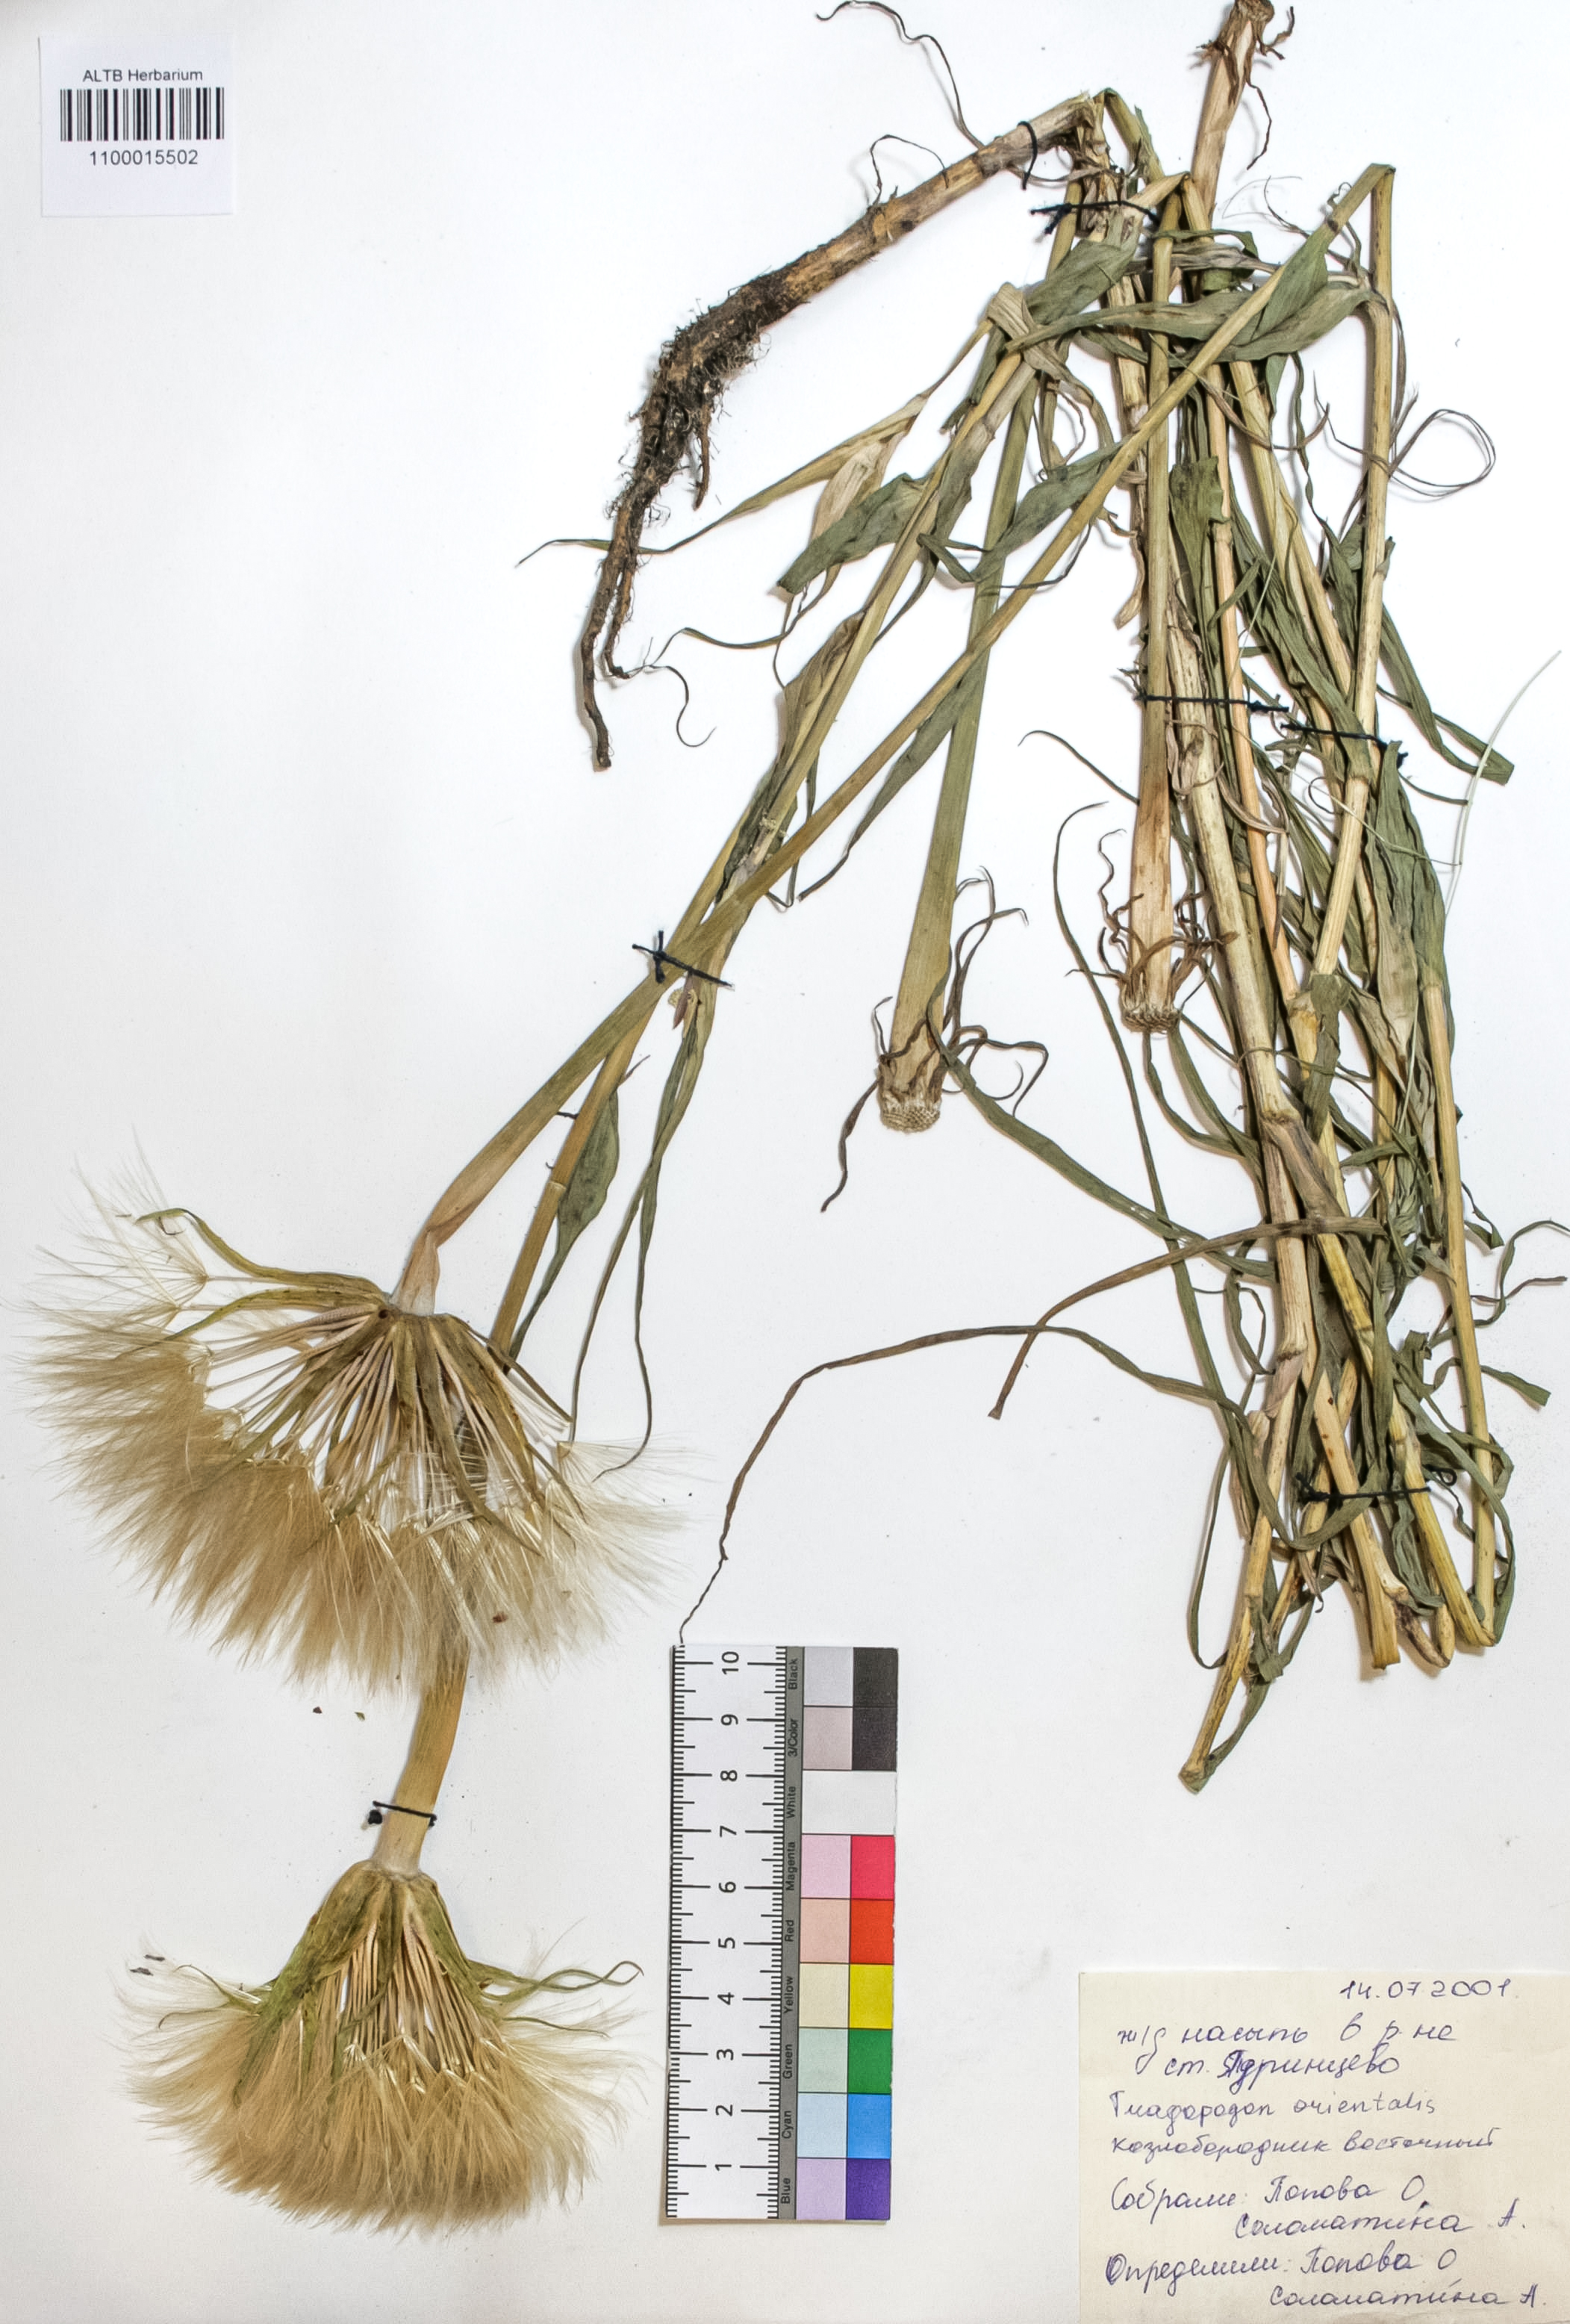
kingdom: Plantae
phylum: Tracheophyta
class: Magnoliopsida
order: Asterales
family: Asteraceae
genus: Tragopogon
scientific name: Tragopogon orientalis
